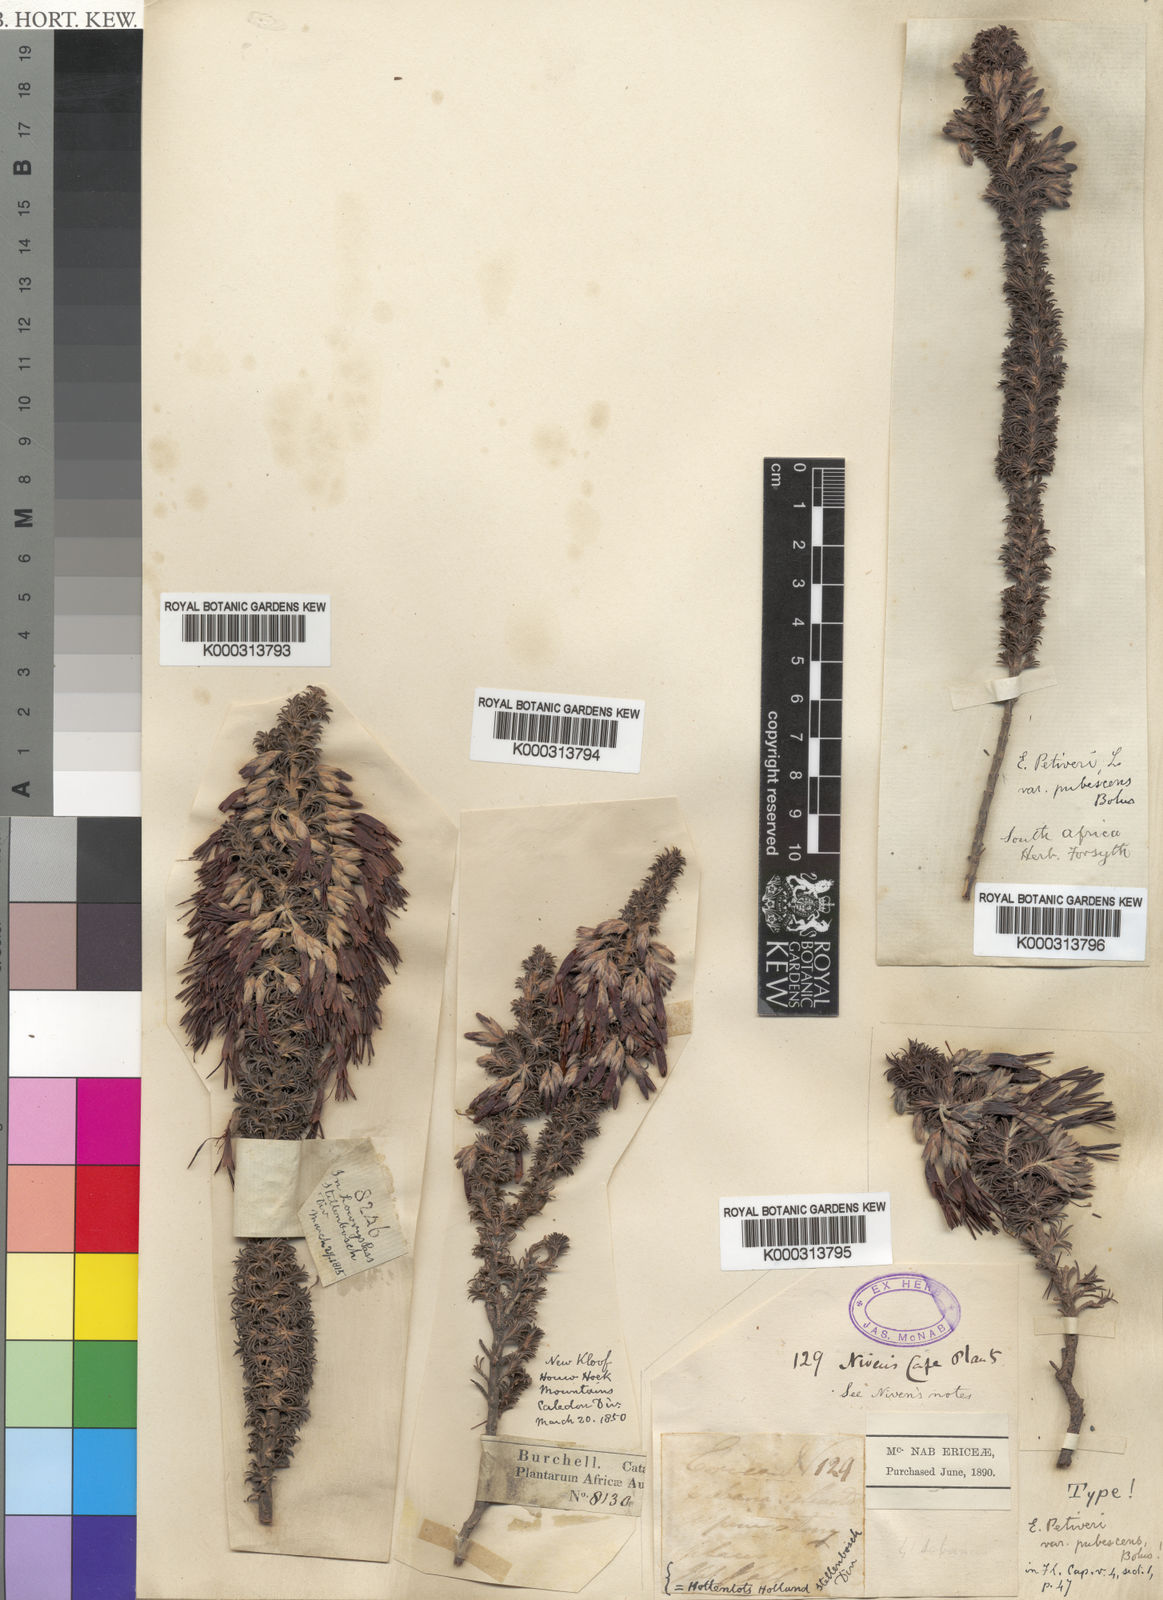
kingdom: Plantae
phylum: Tracheophyta
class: Magnoliopsida
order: Ericales
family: Ericaceae
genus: Erica
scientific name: Erica
